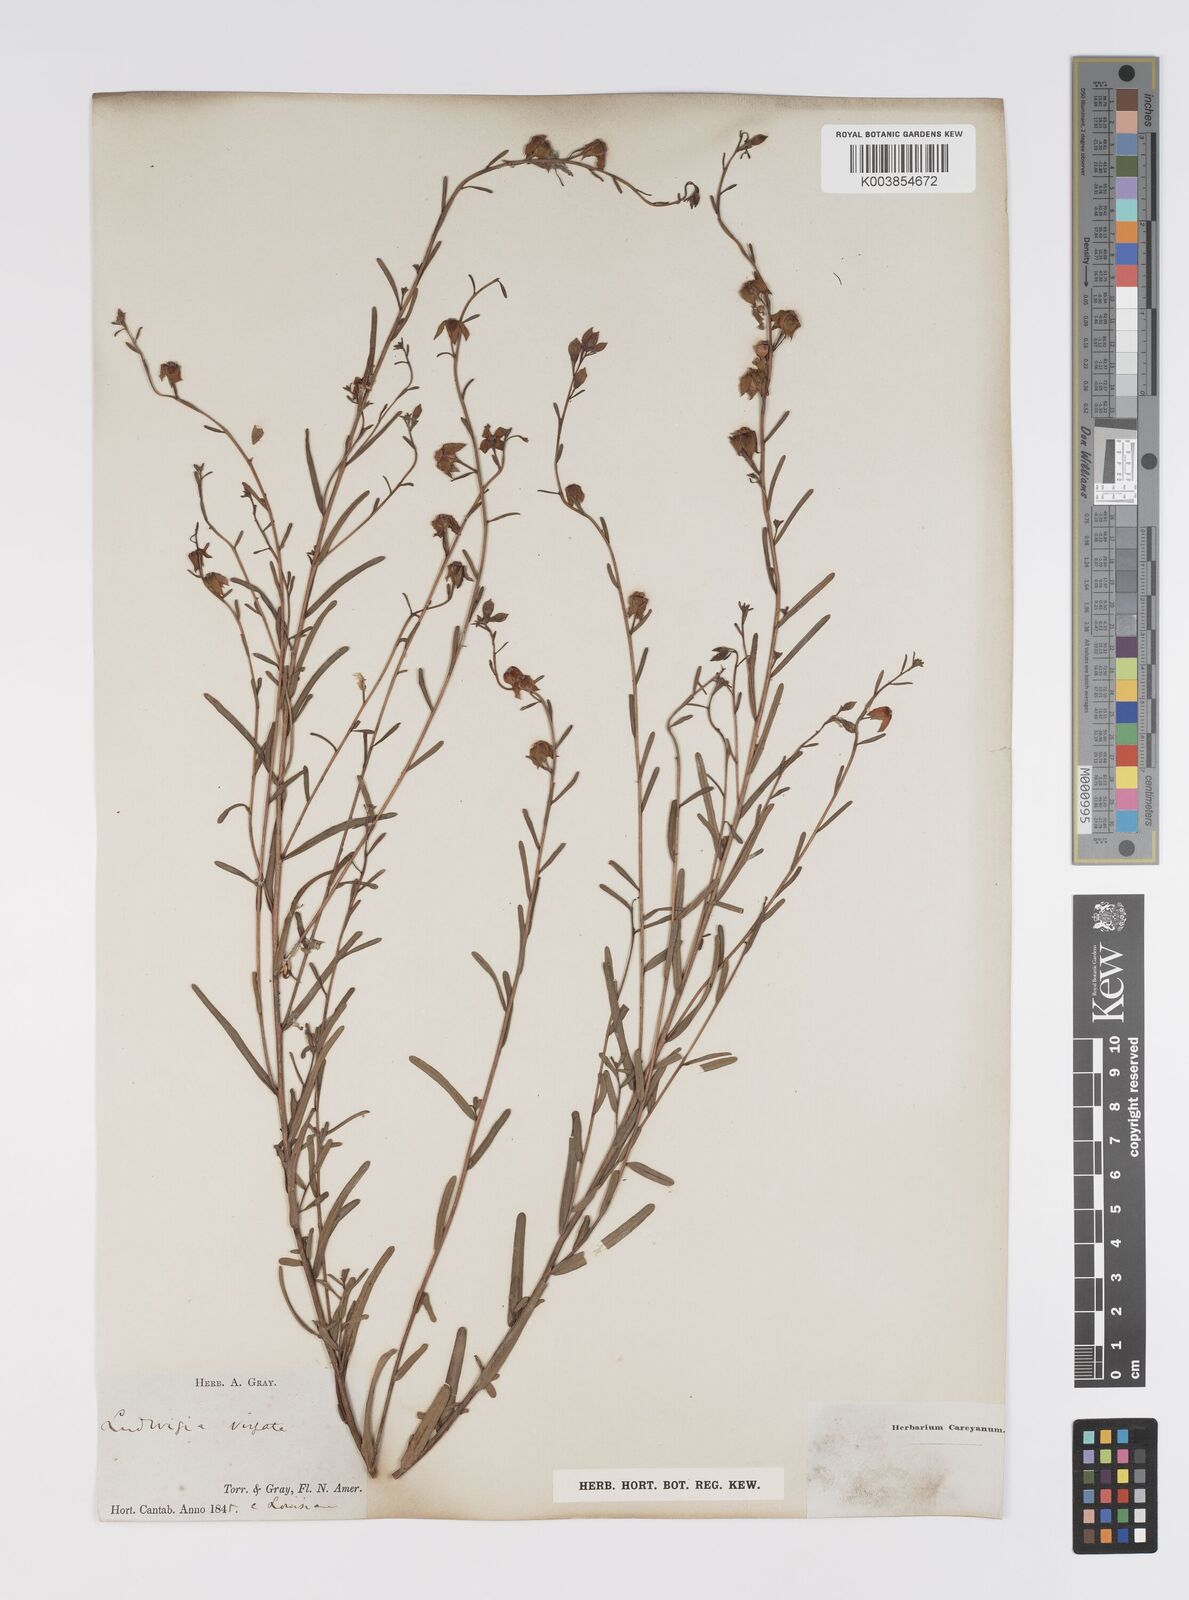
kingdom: Plantae
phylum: Tracheophyta
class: Magnoliopsida
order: Myrtales
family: Onagraceae
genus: Ludwigia
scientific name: Ludwigia virgata
